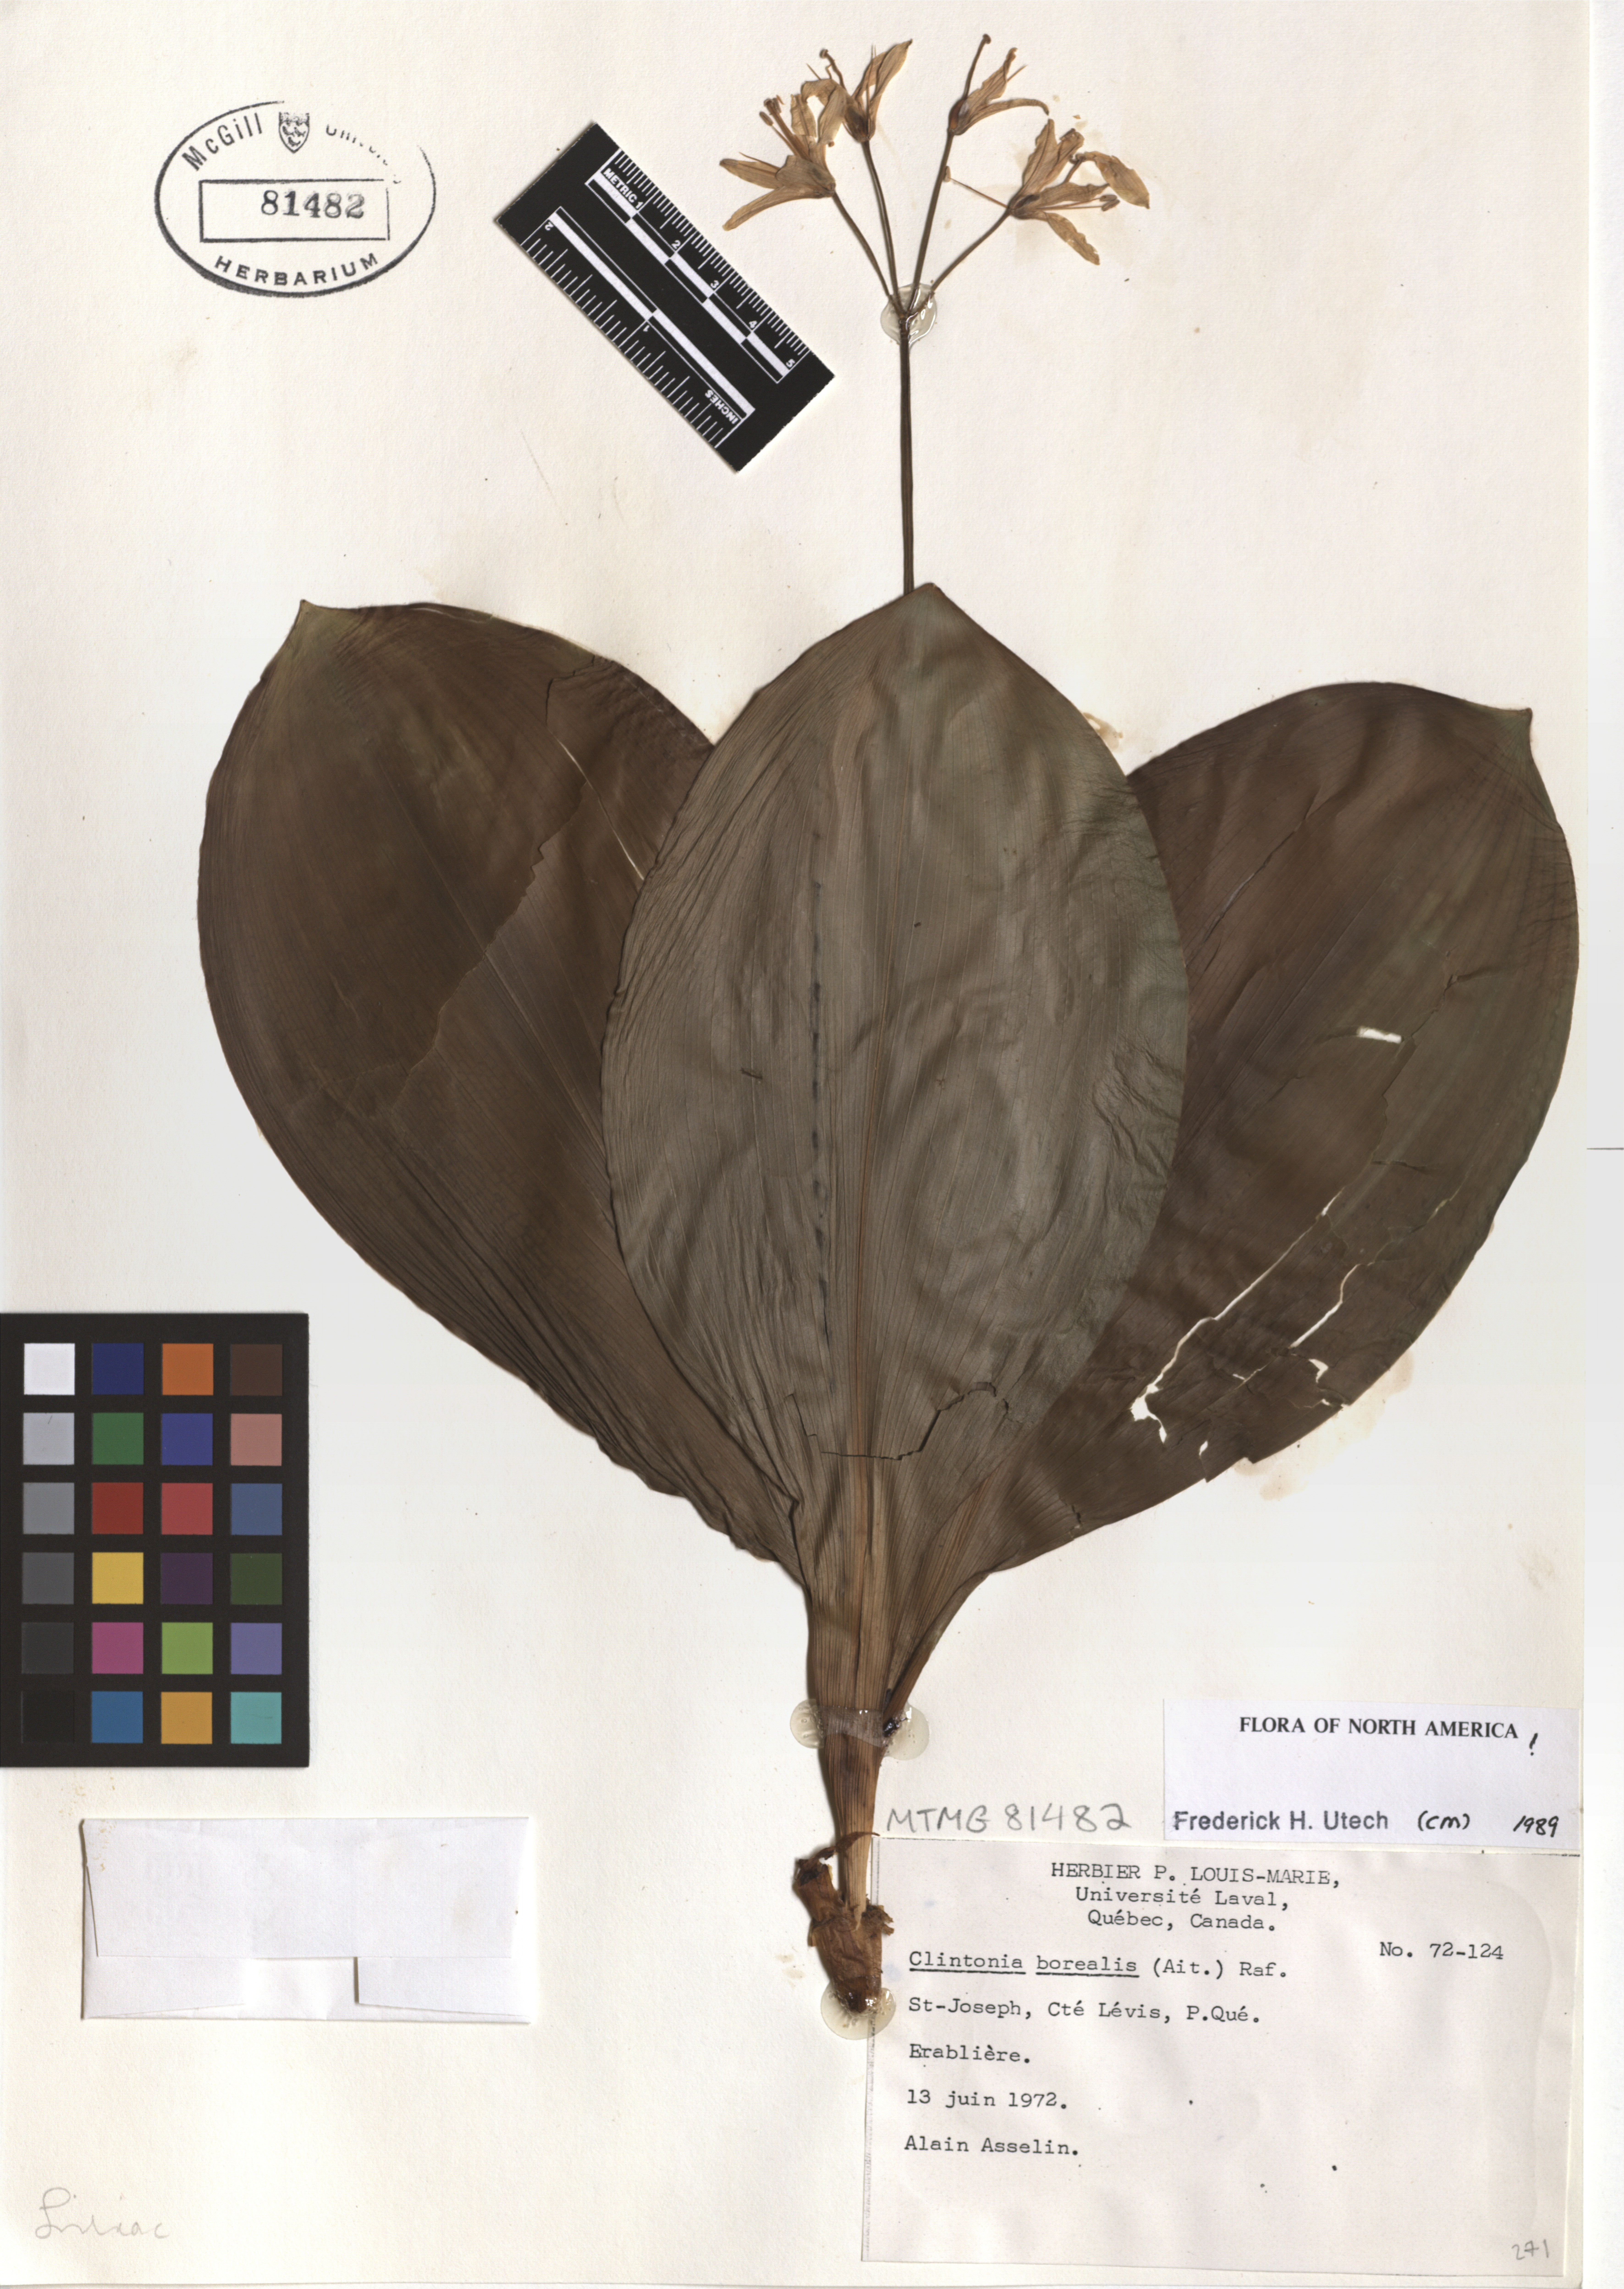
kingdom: Plantae
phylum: Tracheophyta
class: Liliopsida
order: Liliales
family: Liliaceae
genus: Clintonia
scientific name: Clintonia borealis
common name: Yellow clintonia
